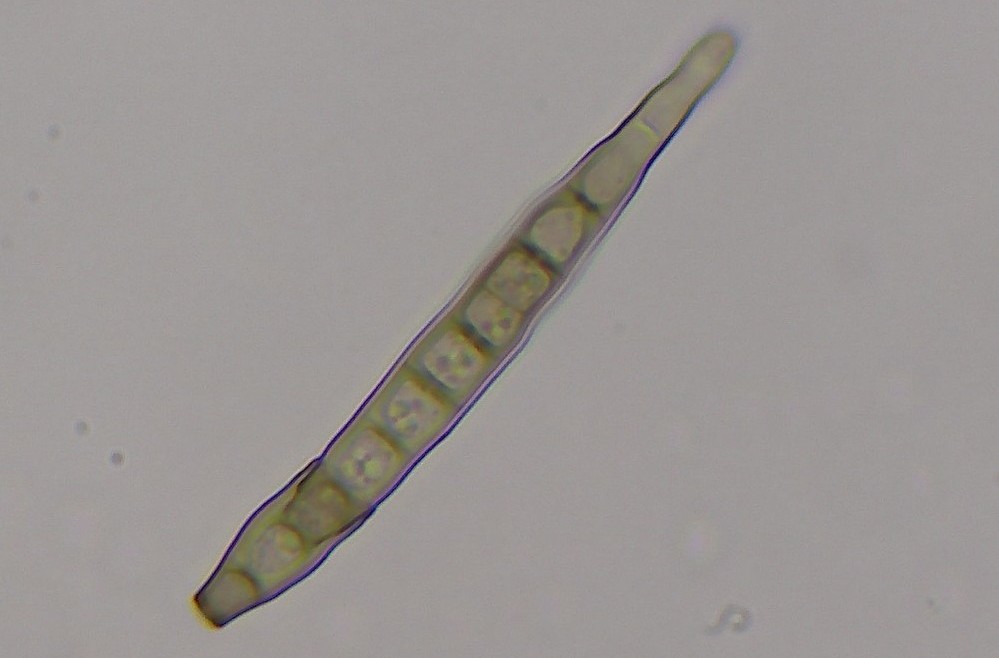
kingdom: Fungi
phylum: Ascomycota
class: Dothideomycetes
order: Pleosporales
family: Melanommataceae
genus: Camposporium
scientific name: Camposporium cambrense
